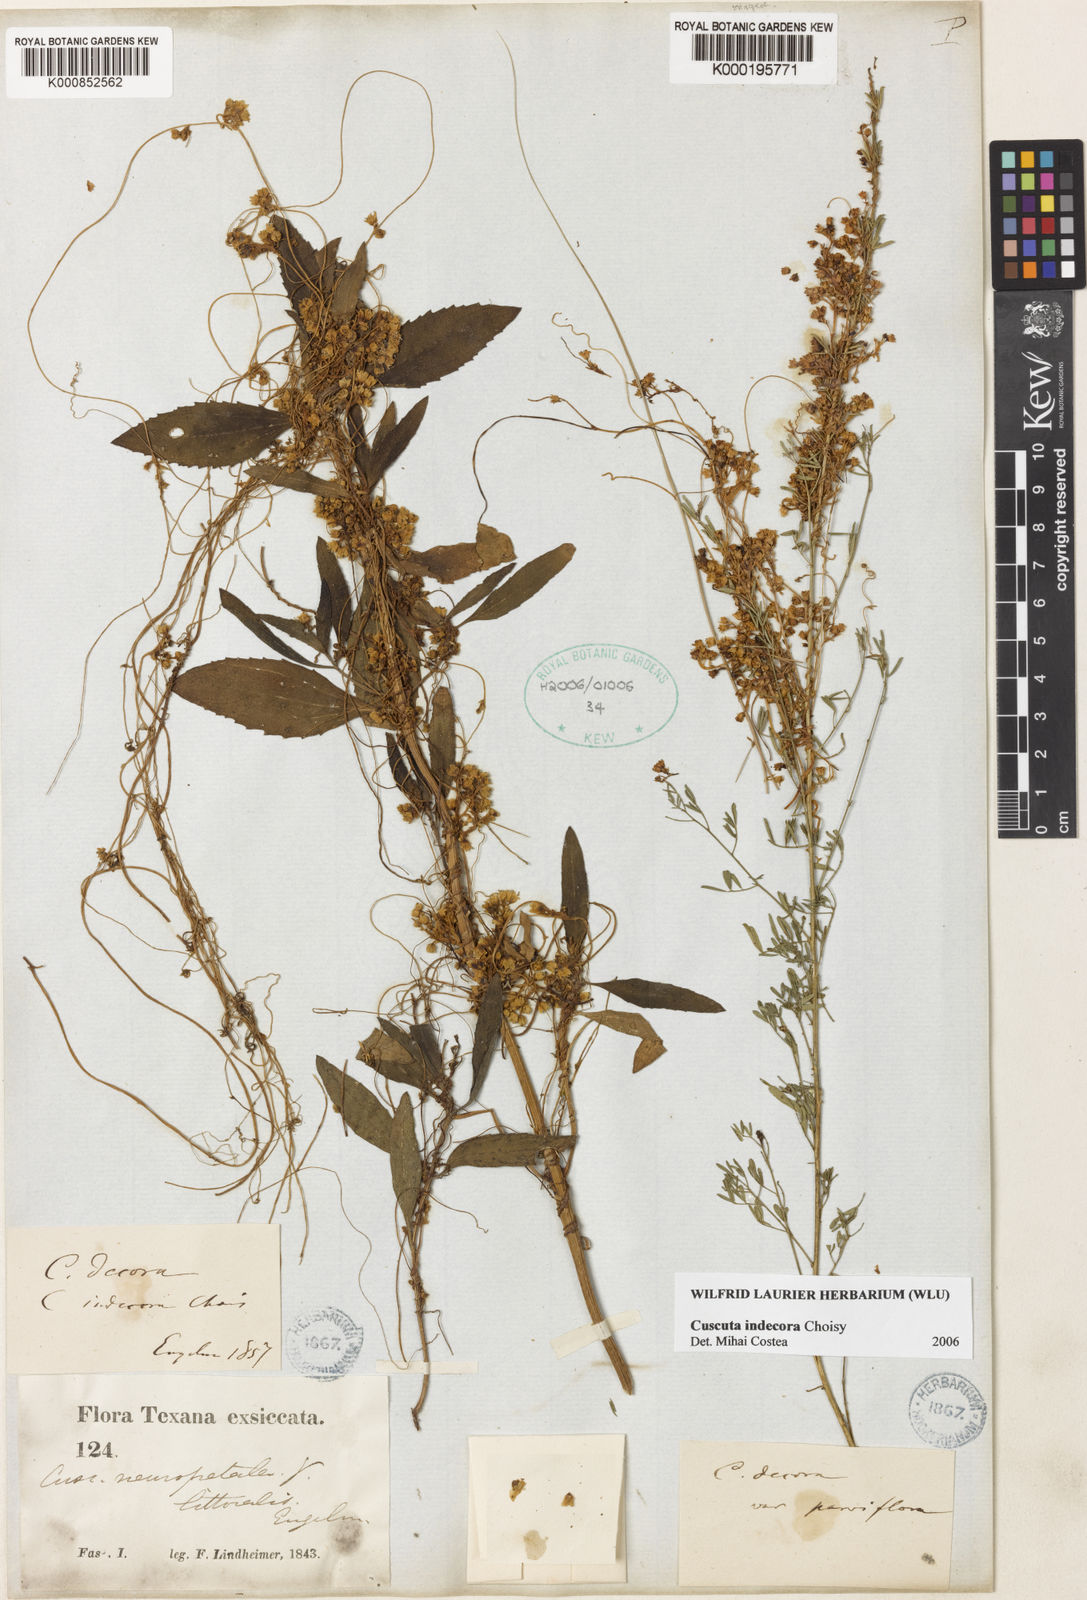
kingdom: Plantae
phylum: Tracheophyta
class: Magnoliopsida
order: Solanales
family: Convolvulaceae
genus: Cuscuta
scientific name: Cuscuta indecora
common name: Large-seed dodder
